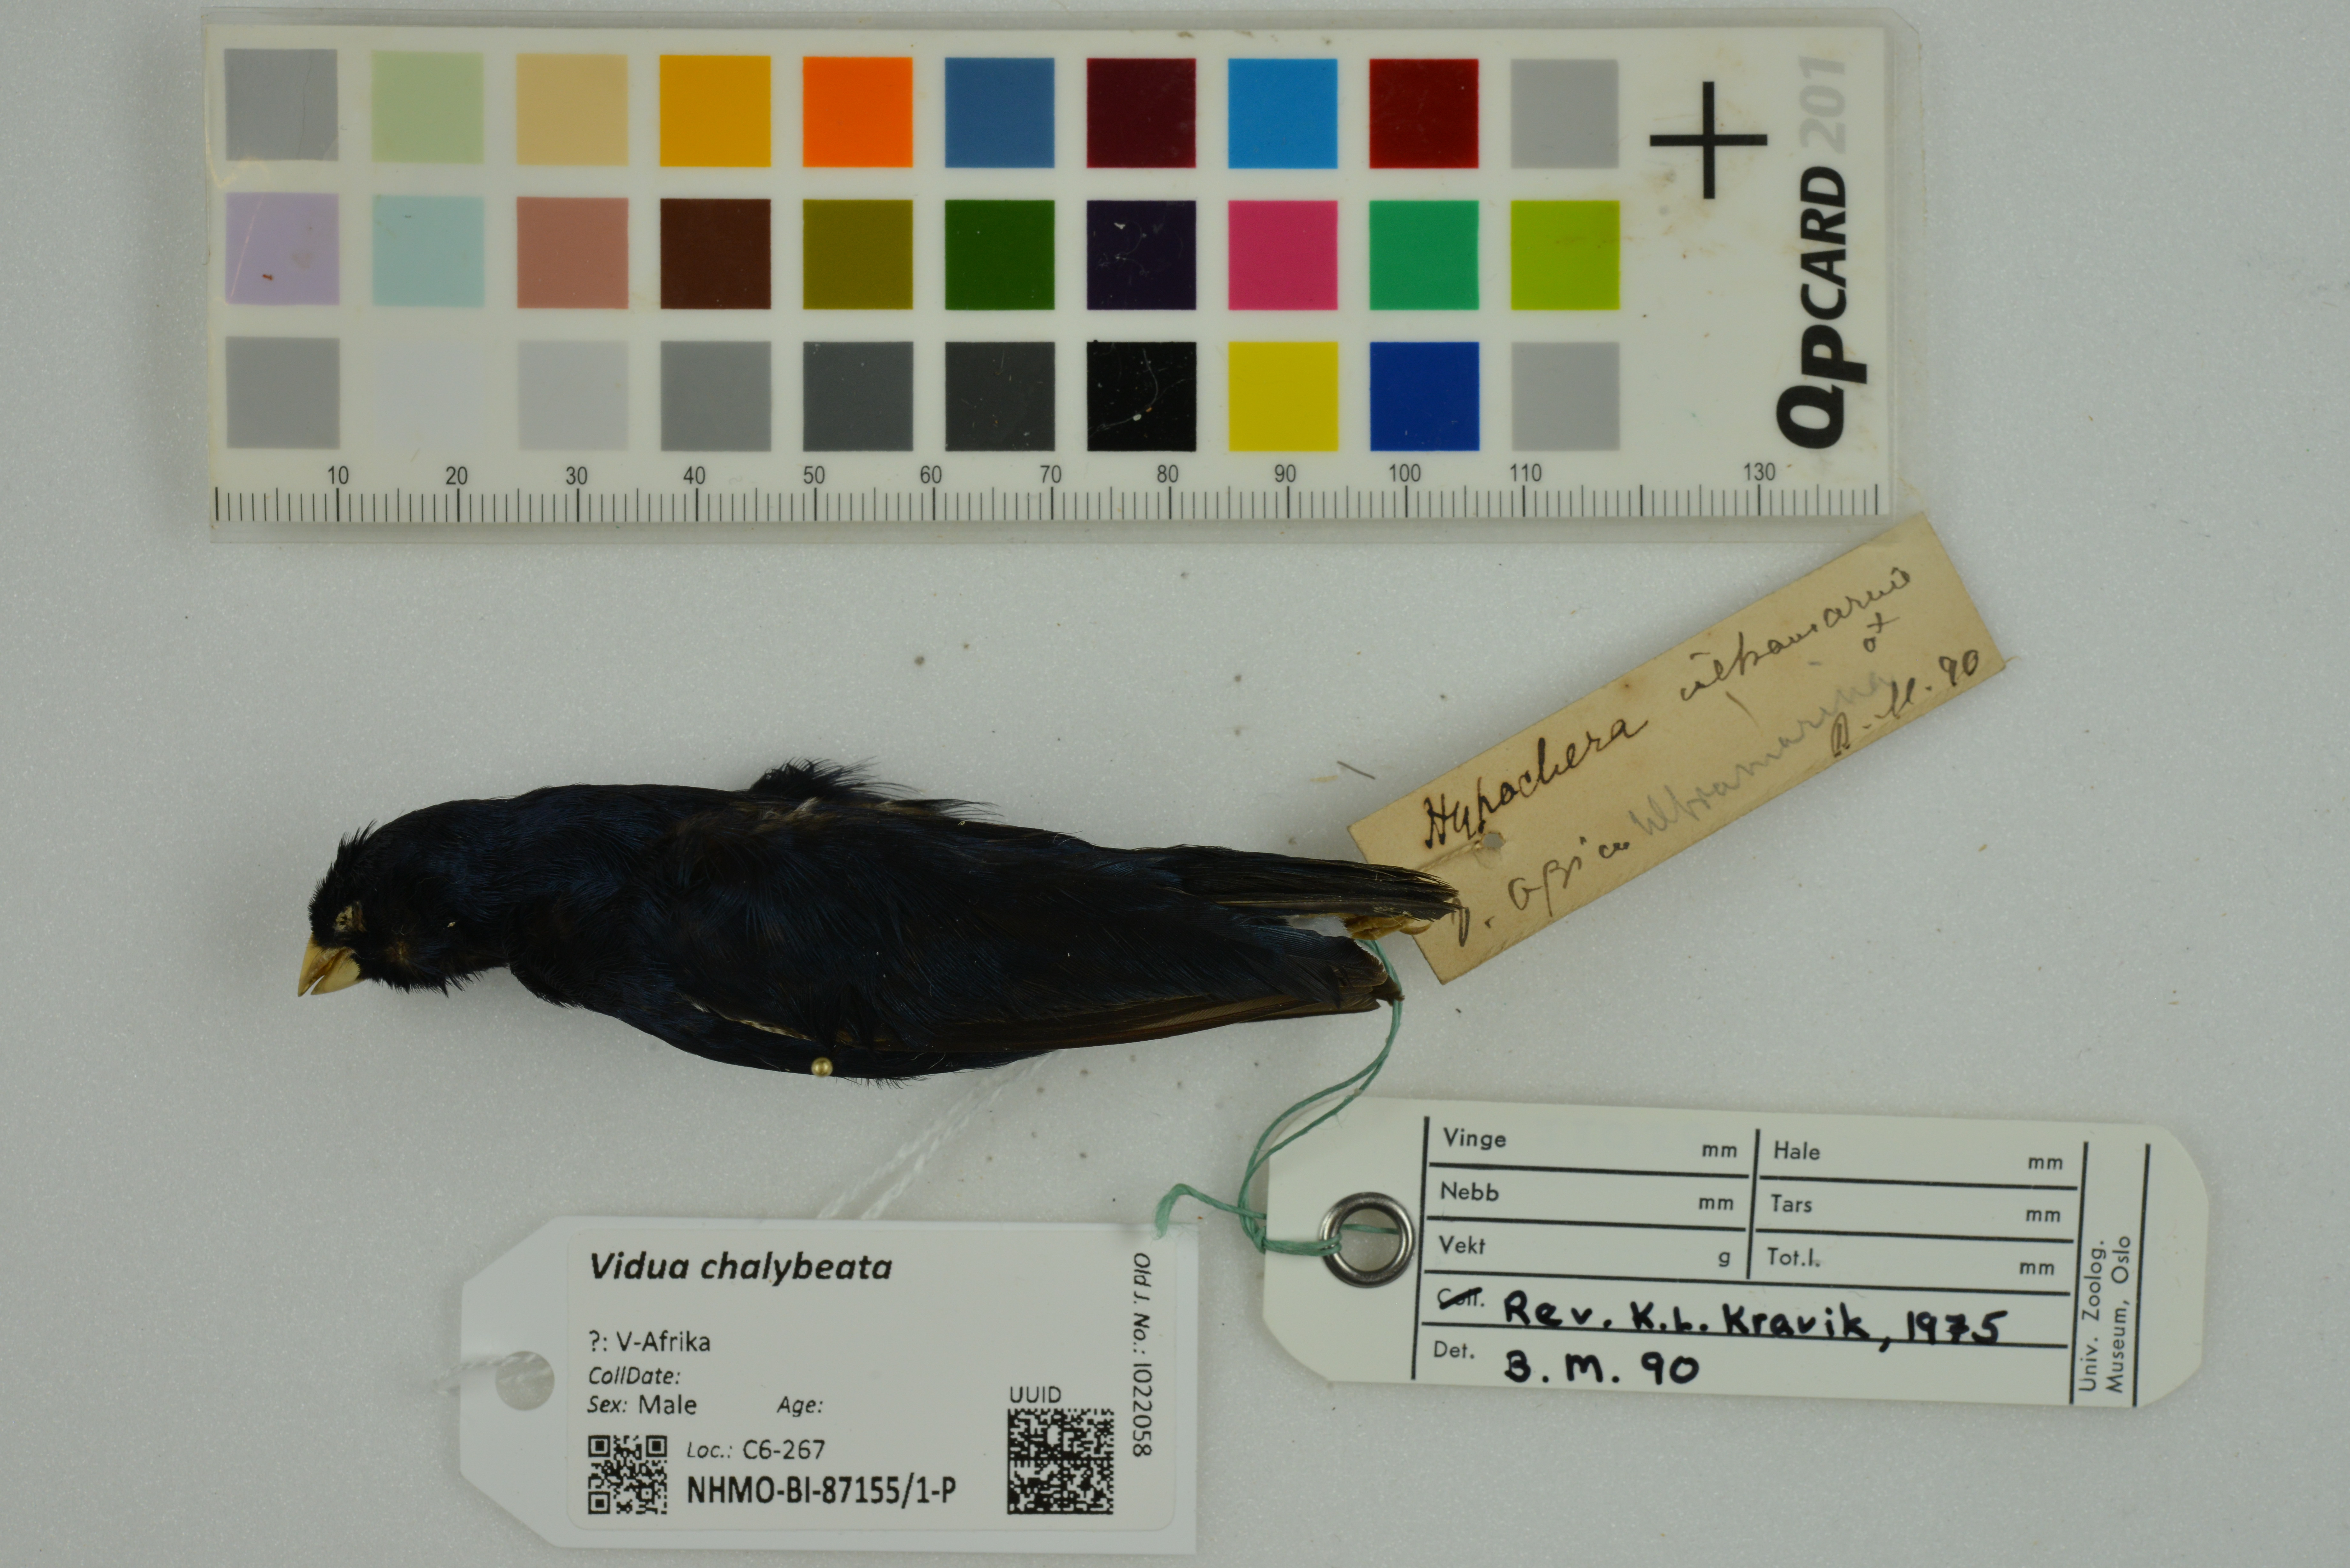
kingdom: Animalia
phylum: Chordata
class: Aves
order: Passeriformes
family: Viduidae
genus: Vidua
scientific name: Vidua chalybeata
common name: Village indigobird
